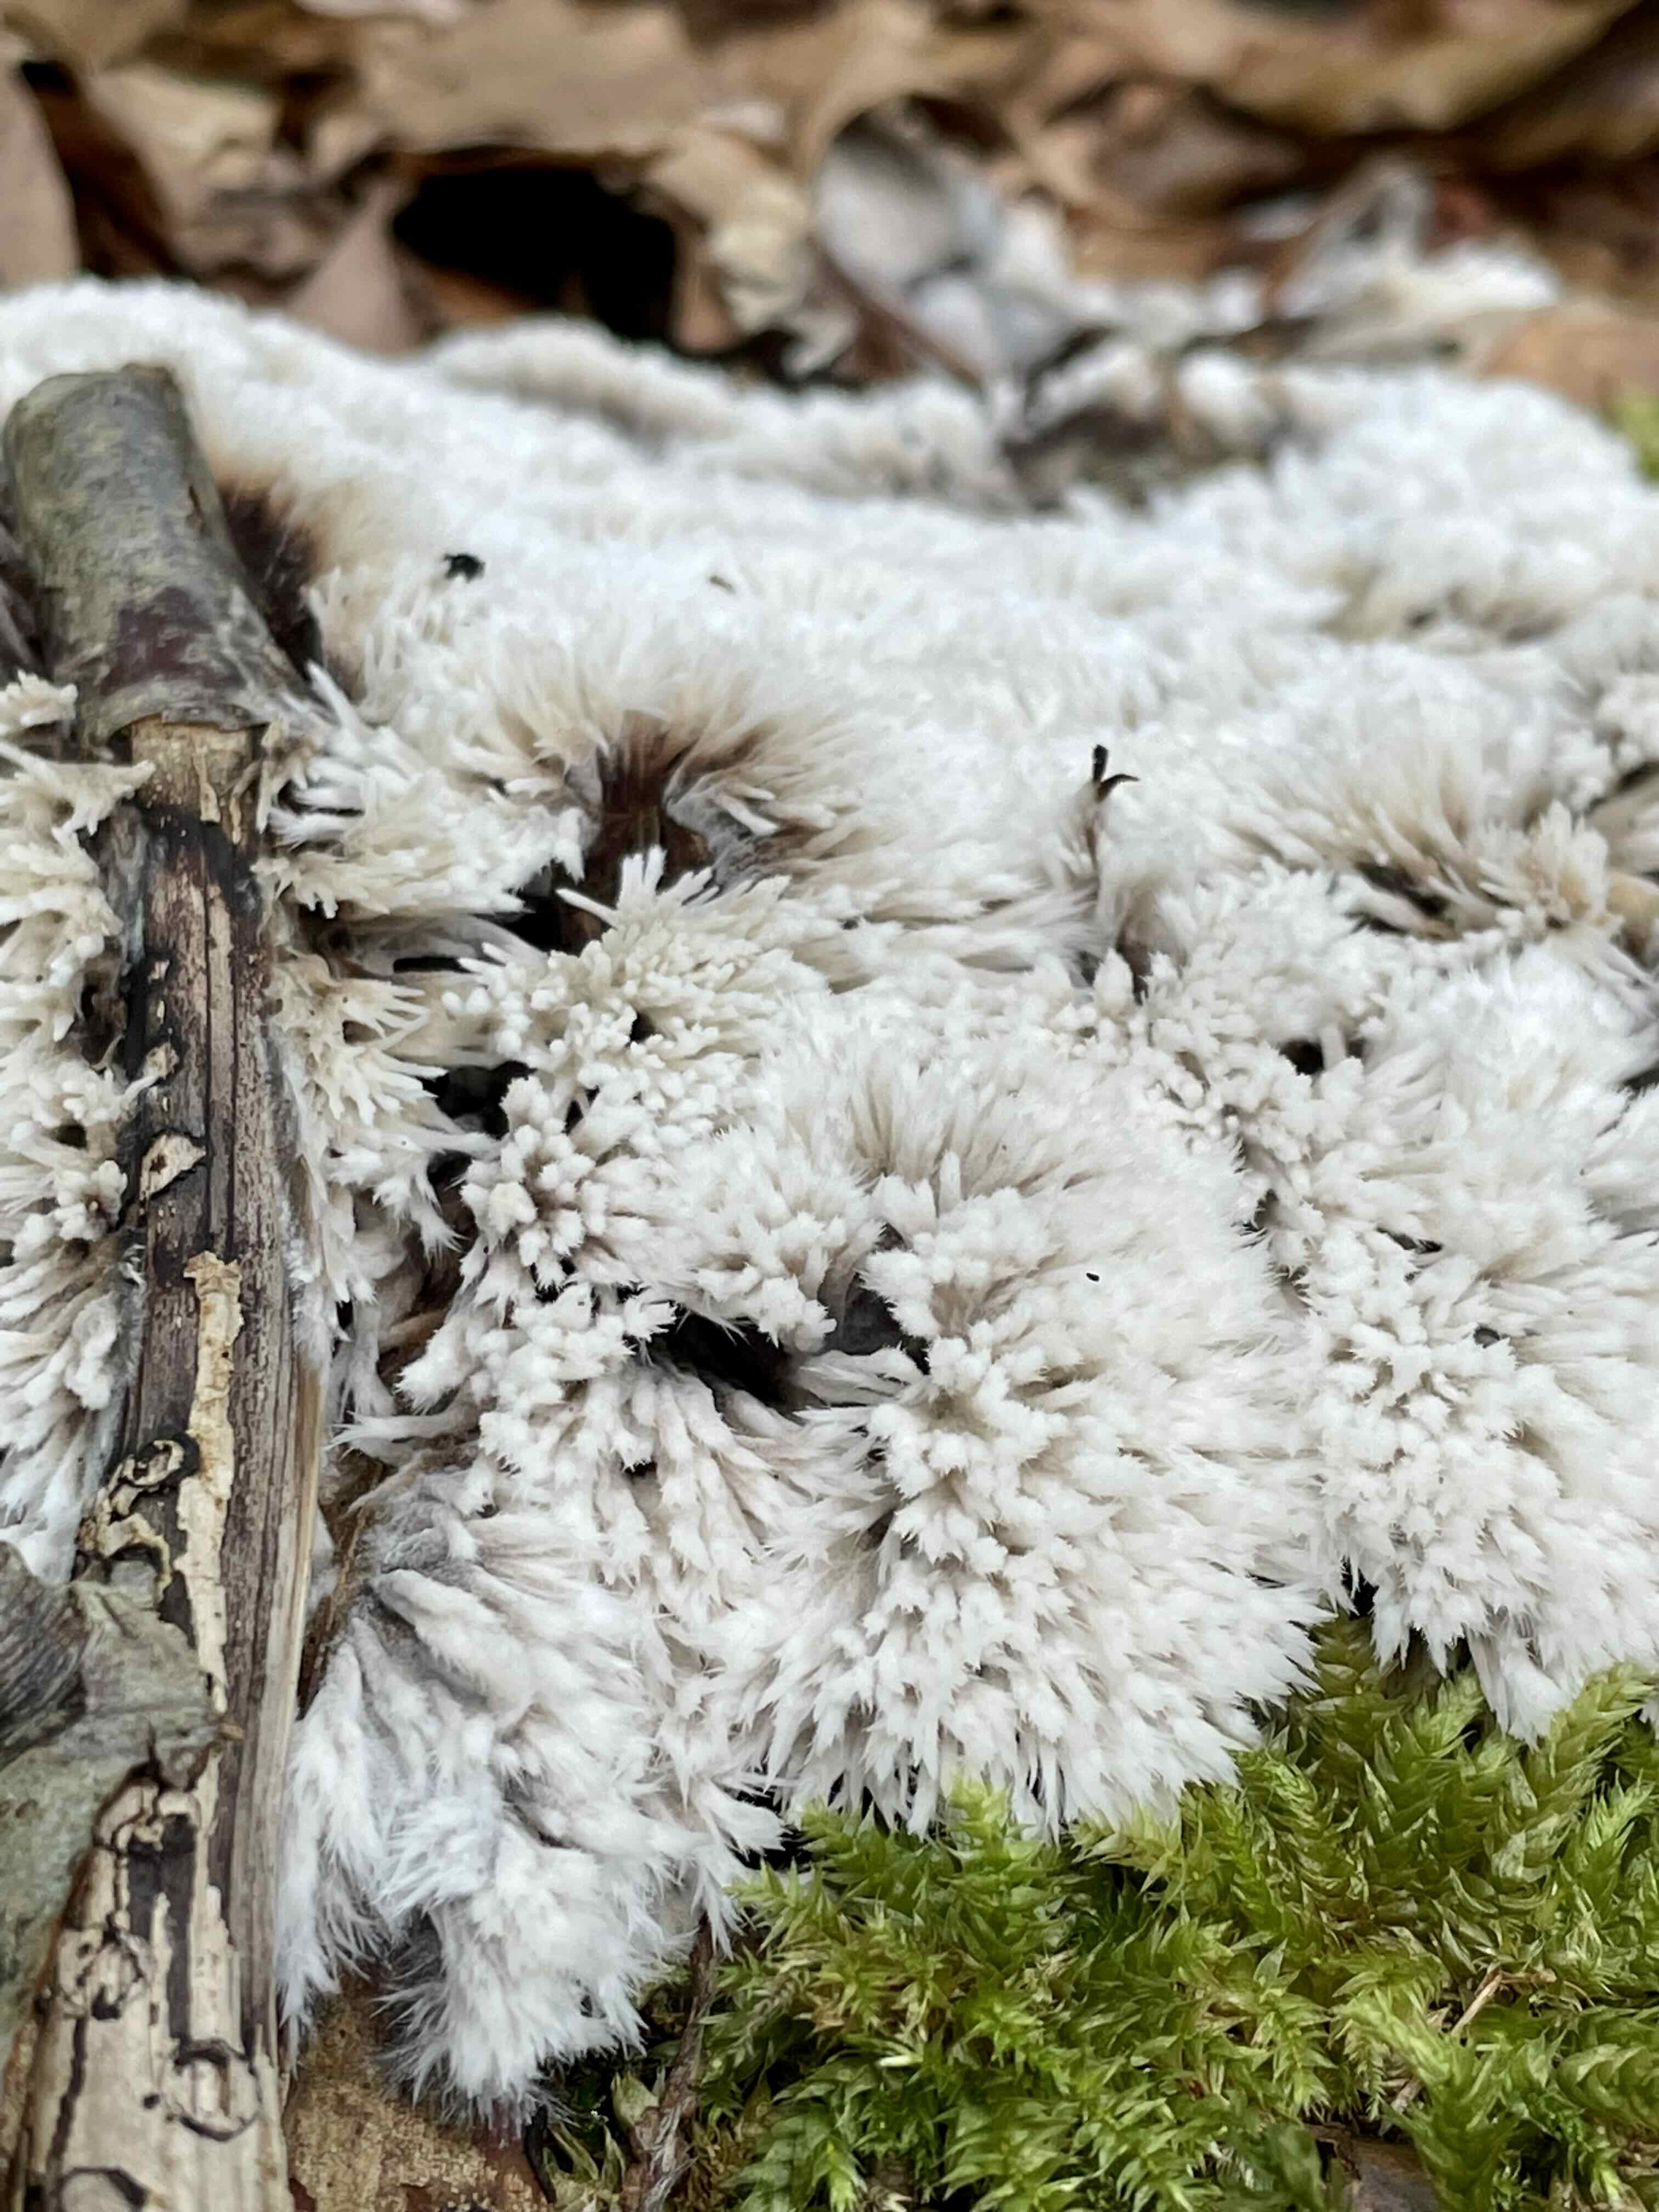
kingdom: Fungi
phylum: Basidiomycota
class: Agaricomycetes
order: Thelephorales
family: Thelephoraceae
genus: Thelephora
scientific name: Thelephora penicillata
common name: fladtrådt frynsesvamp
